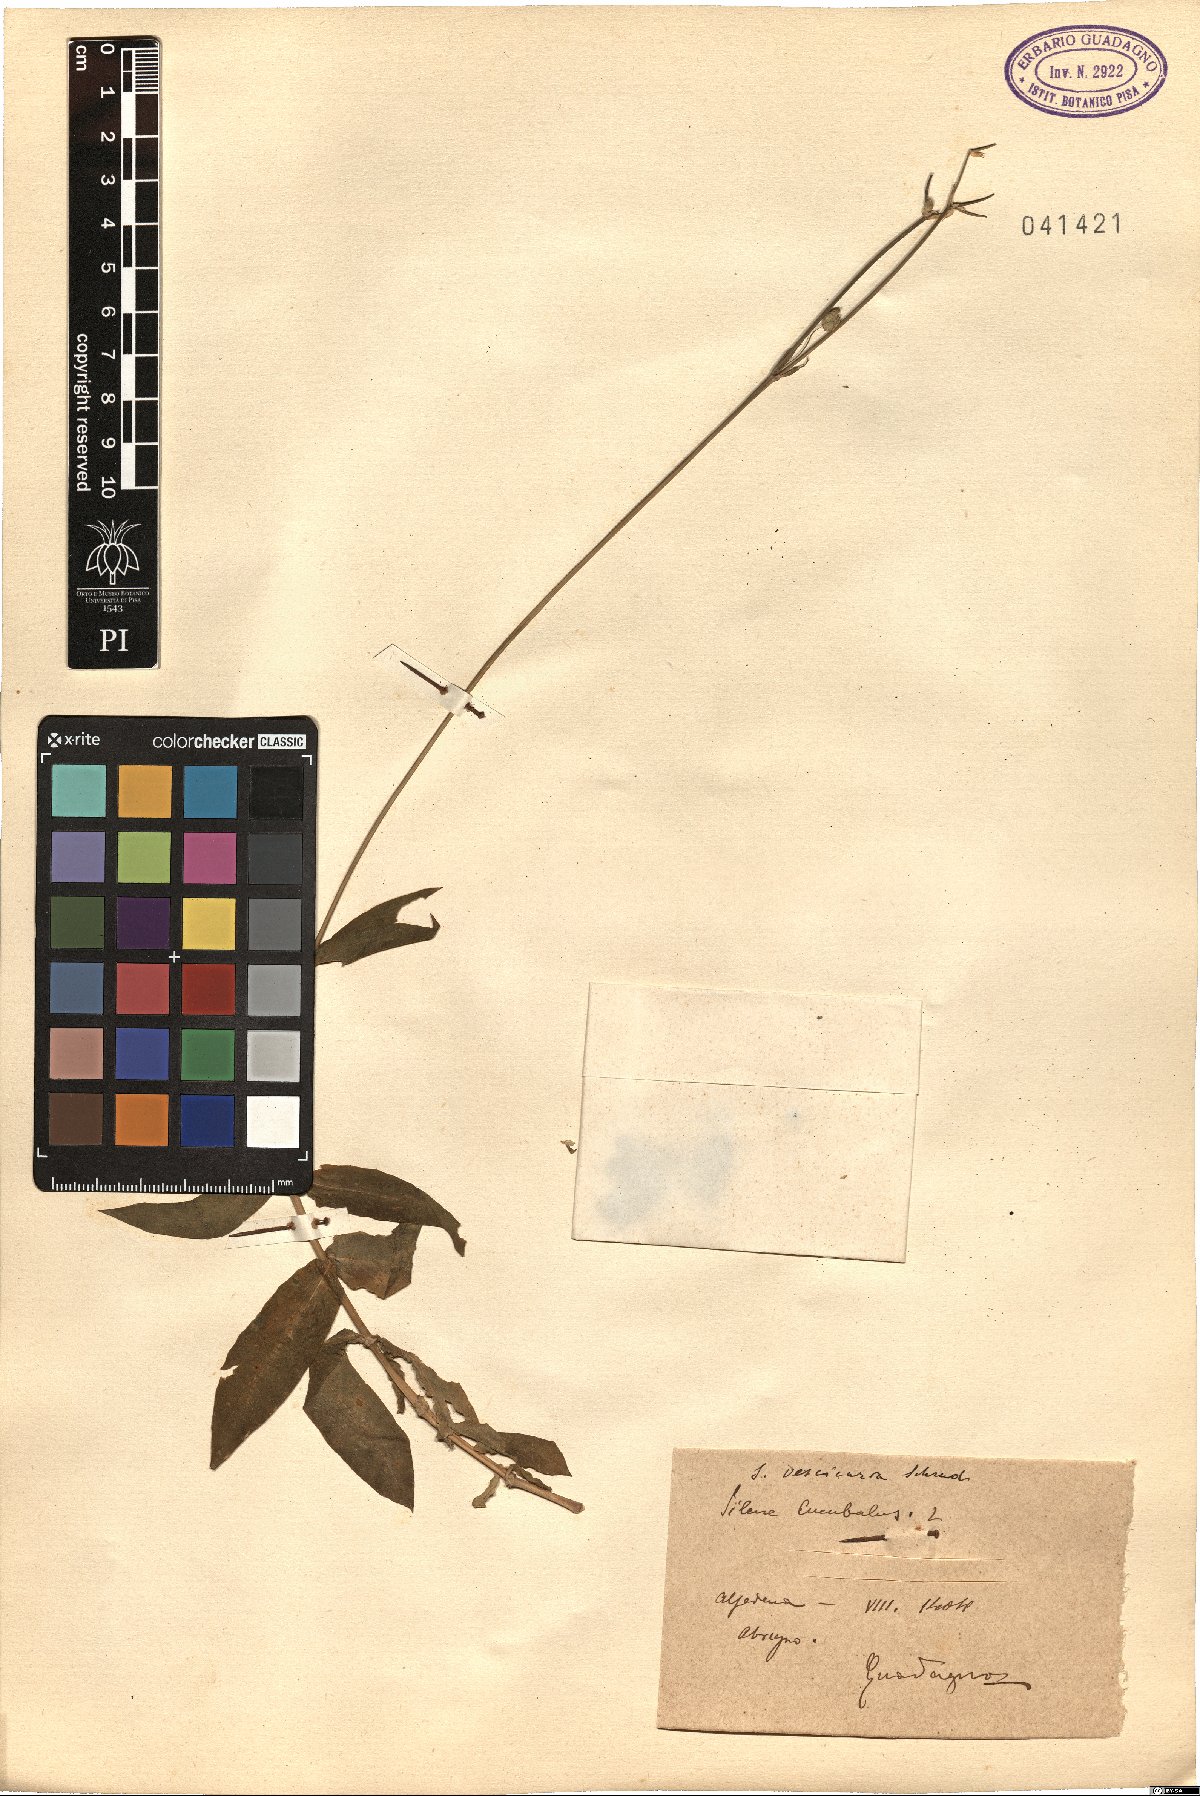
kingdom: Plantae
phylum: Tracheophyta
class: Magnoliopsida
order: Caryophyllales
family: Caryophyllaceae
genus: Silene
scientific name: Silene vulgaris
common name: Bladder campion
